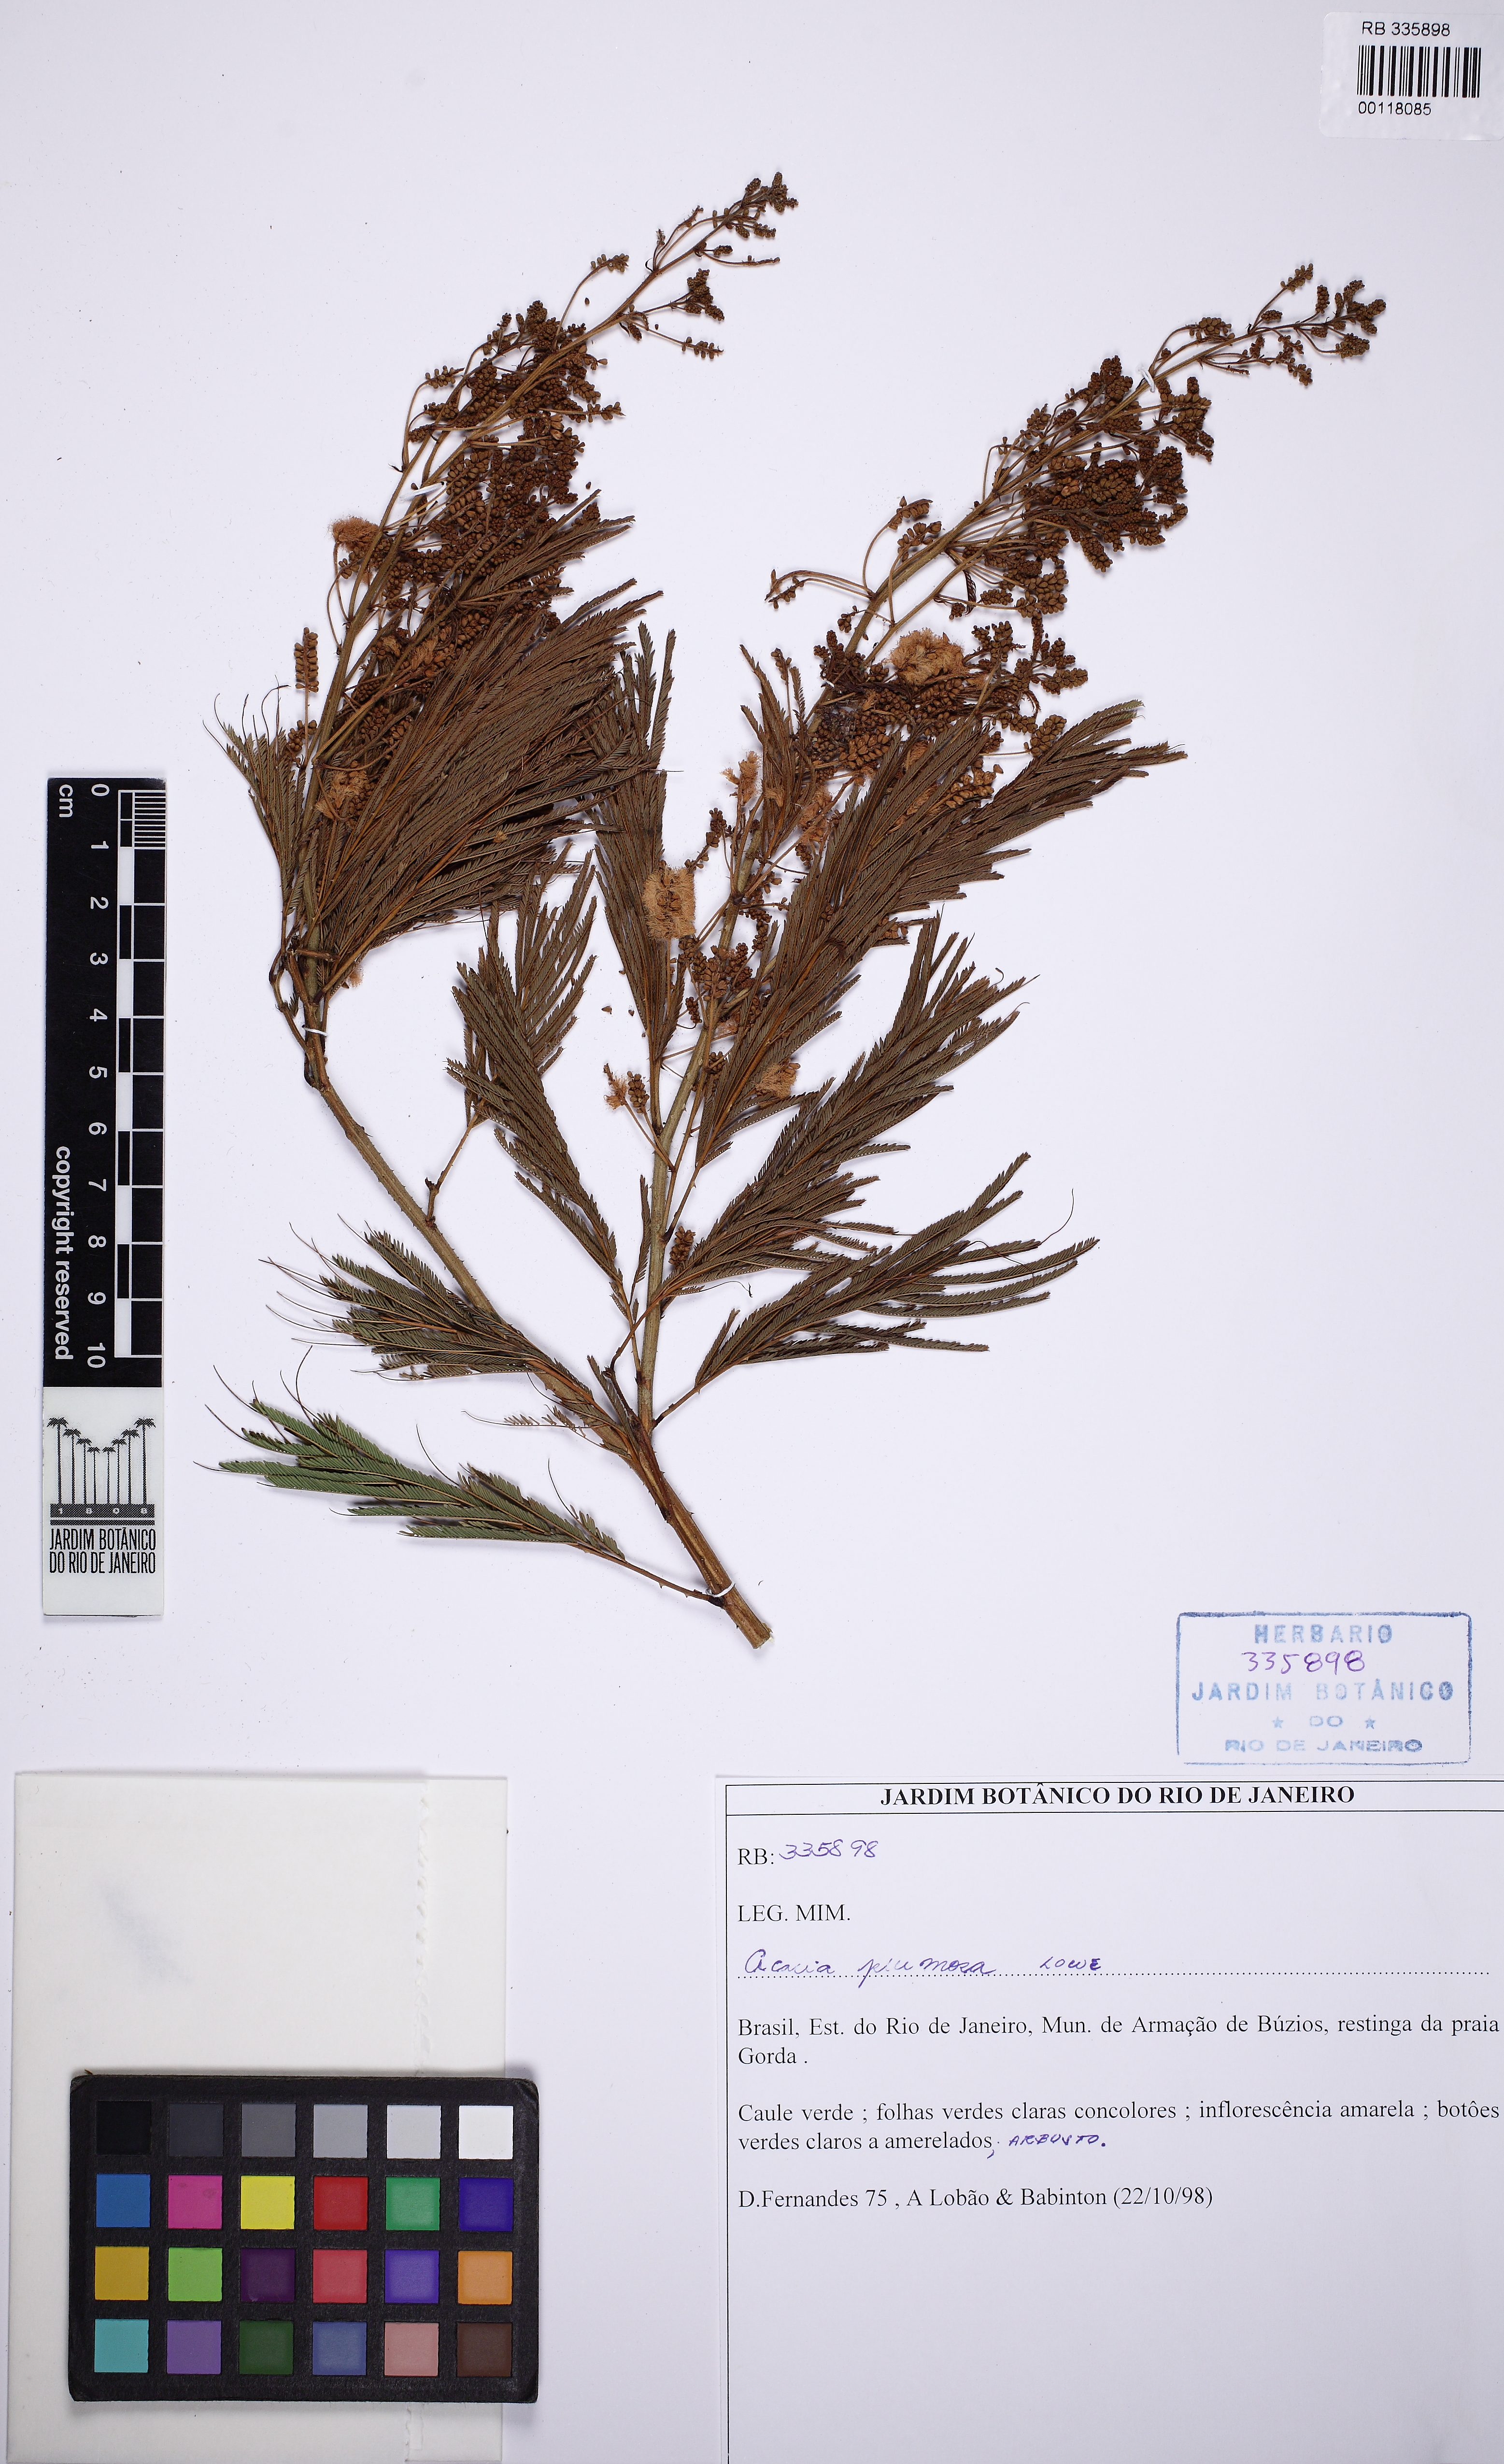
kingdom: Plantae
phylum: Tracheophyta
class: Magnoliopsida
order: Fabales
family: Fabaceae
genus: Senegalia
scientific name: Senegalia angico
